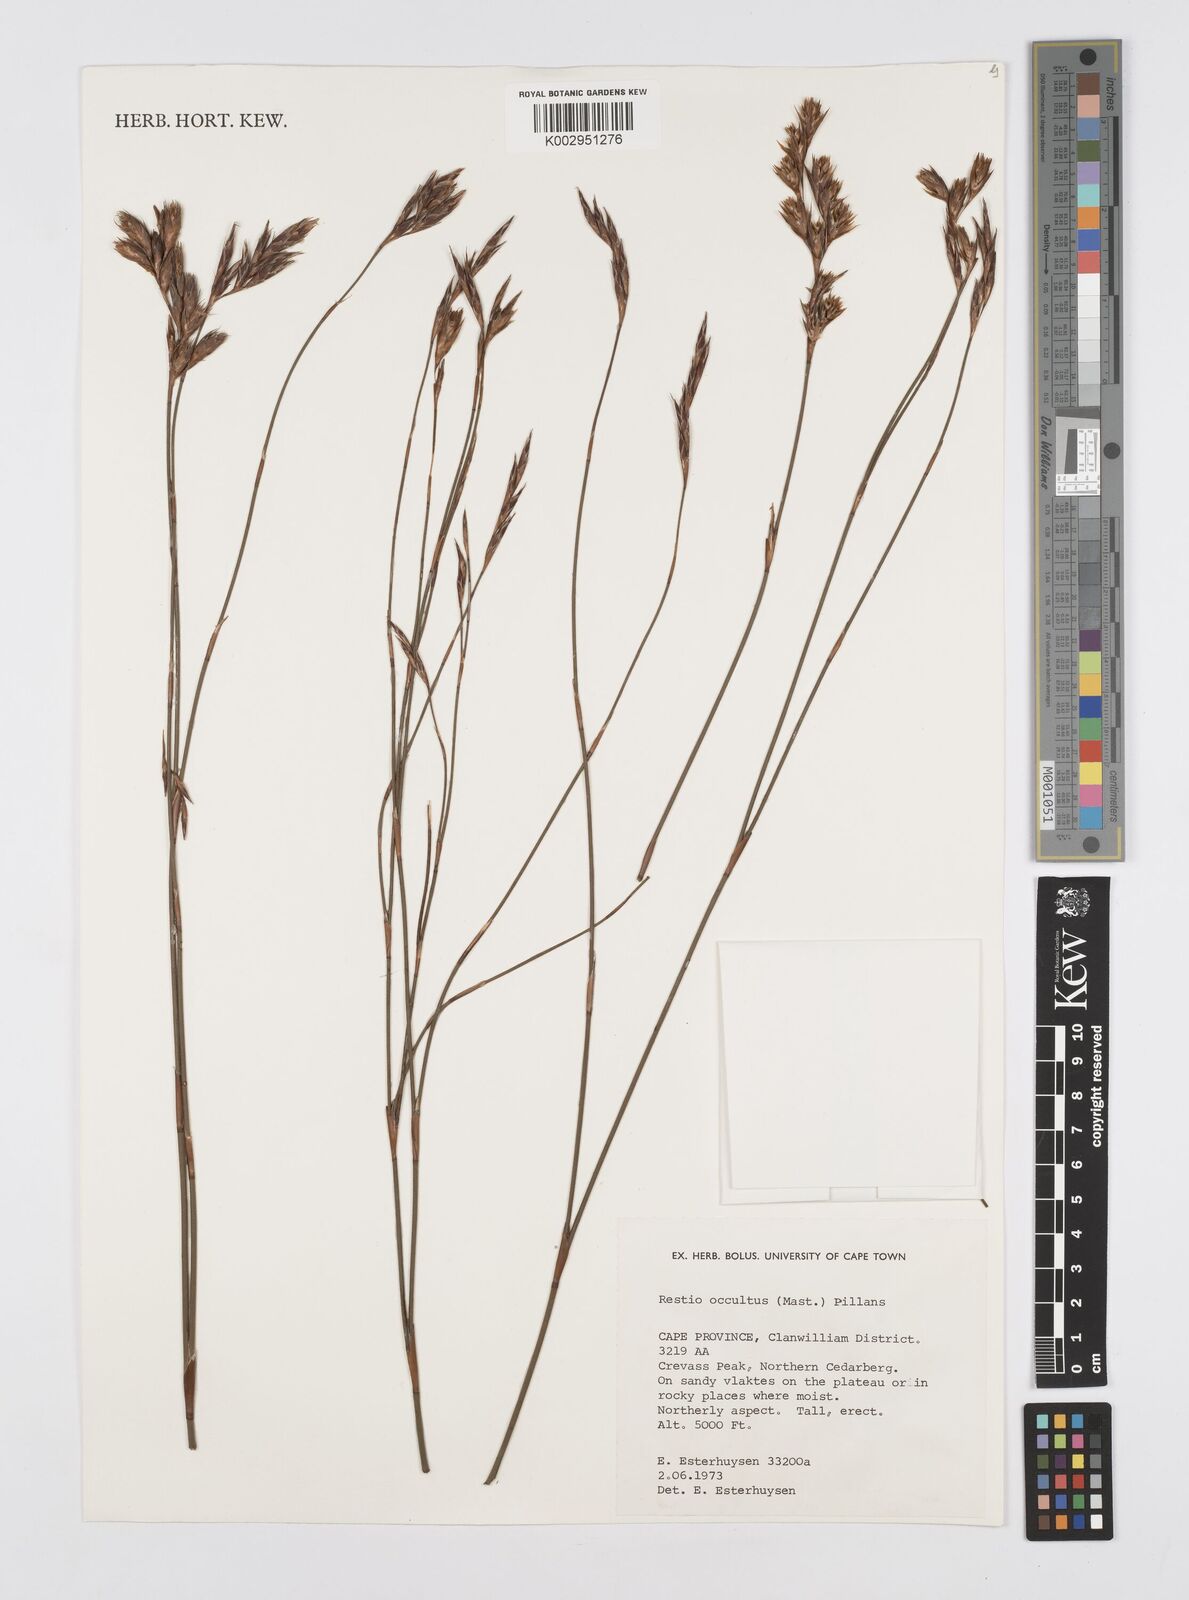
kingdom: Plantae
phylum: Tracheophyta
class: Liliopsida
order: Poales
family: Restionaceae
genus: Restio
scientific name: Restio occultus
